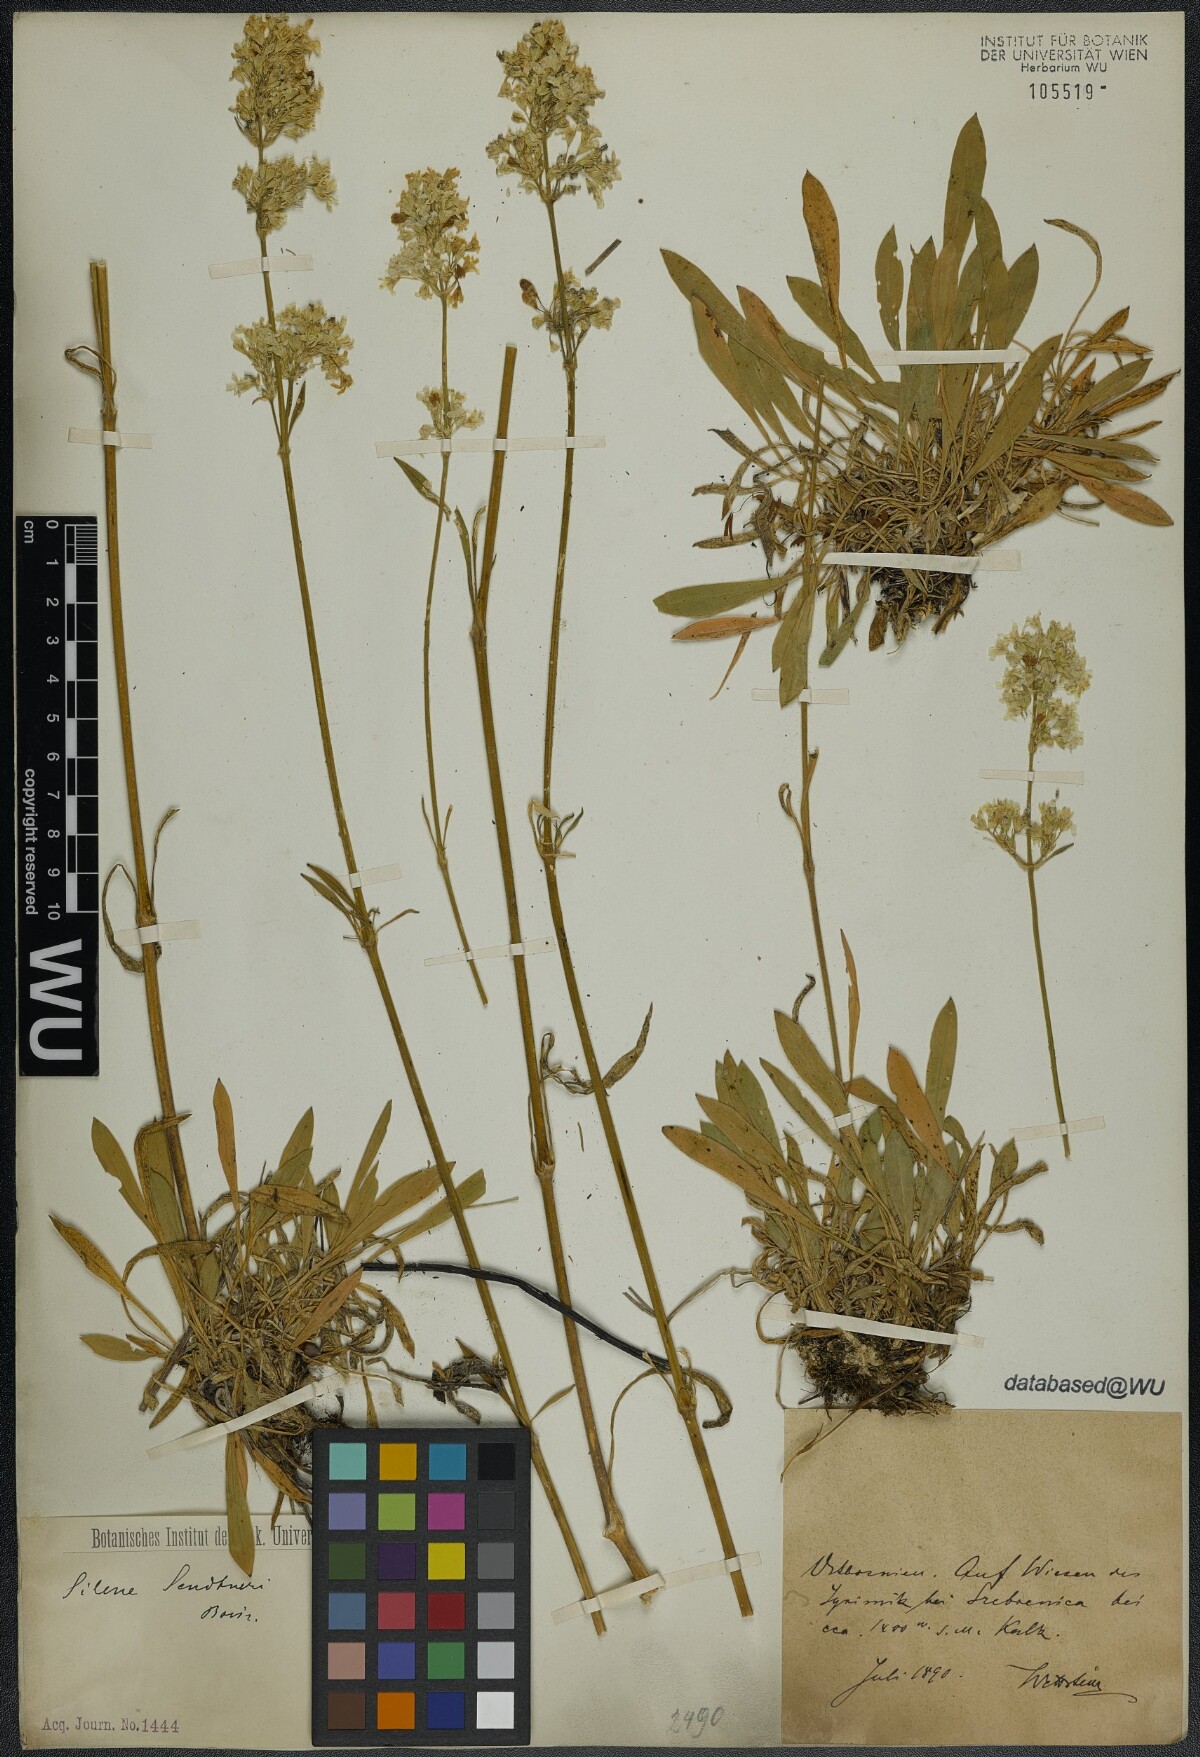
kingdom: Plantae
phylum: Tracheophyta
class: Magnoliopsida
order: Caryophyllales
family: Caryophyllaceae
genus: Silene
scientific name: Silene sendtneri
